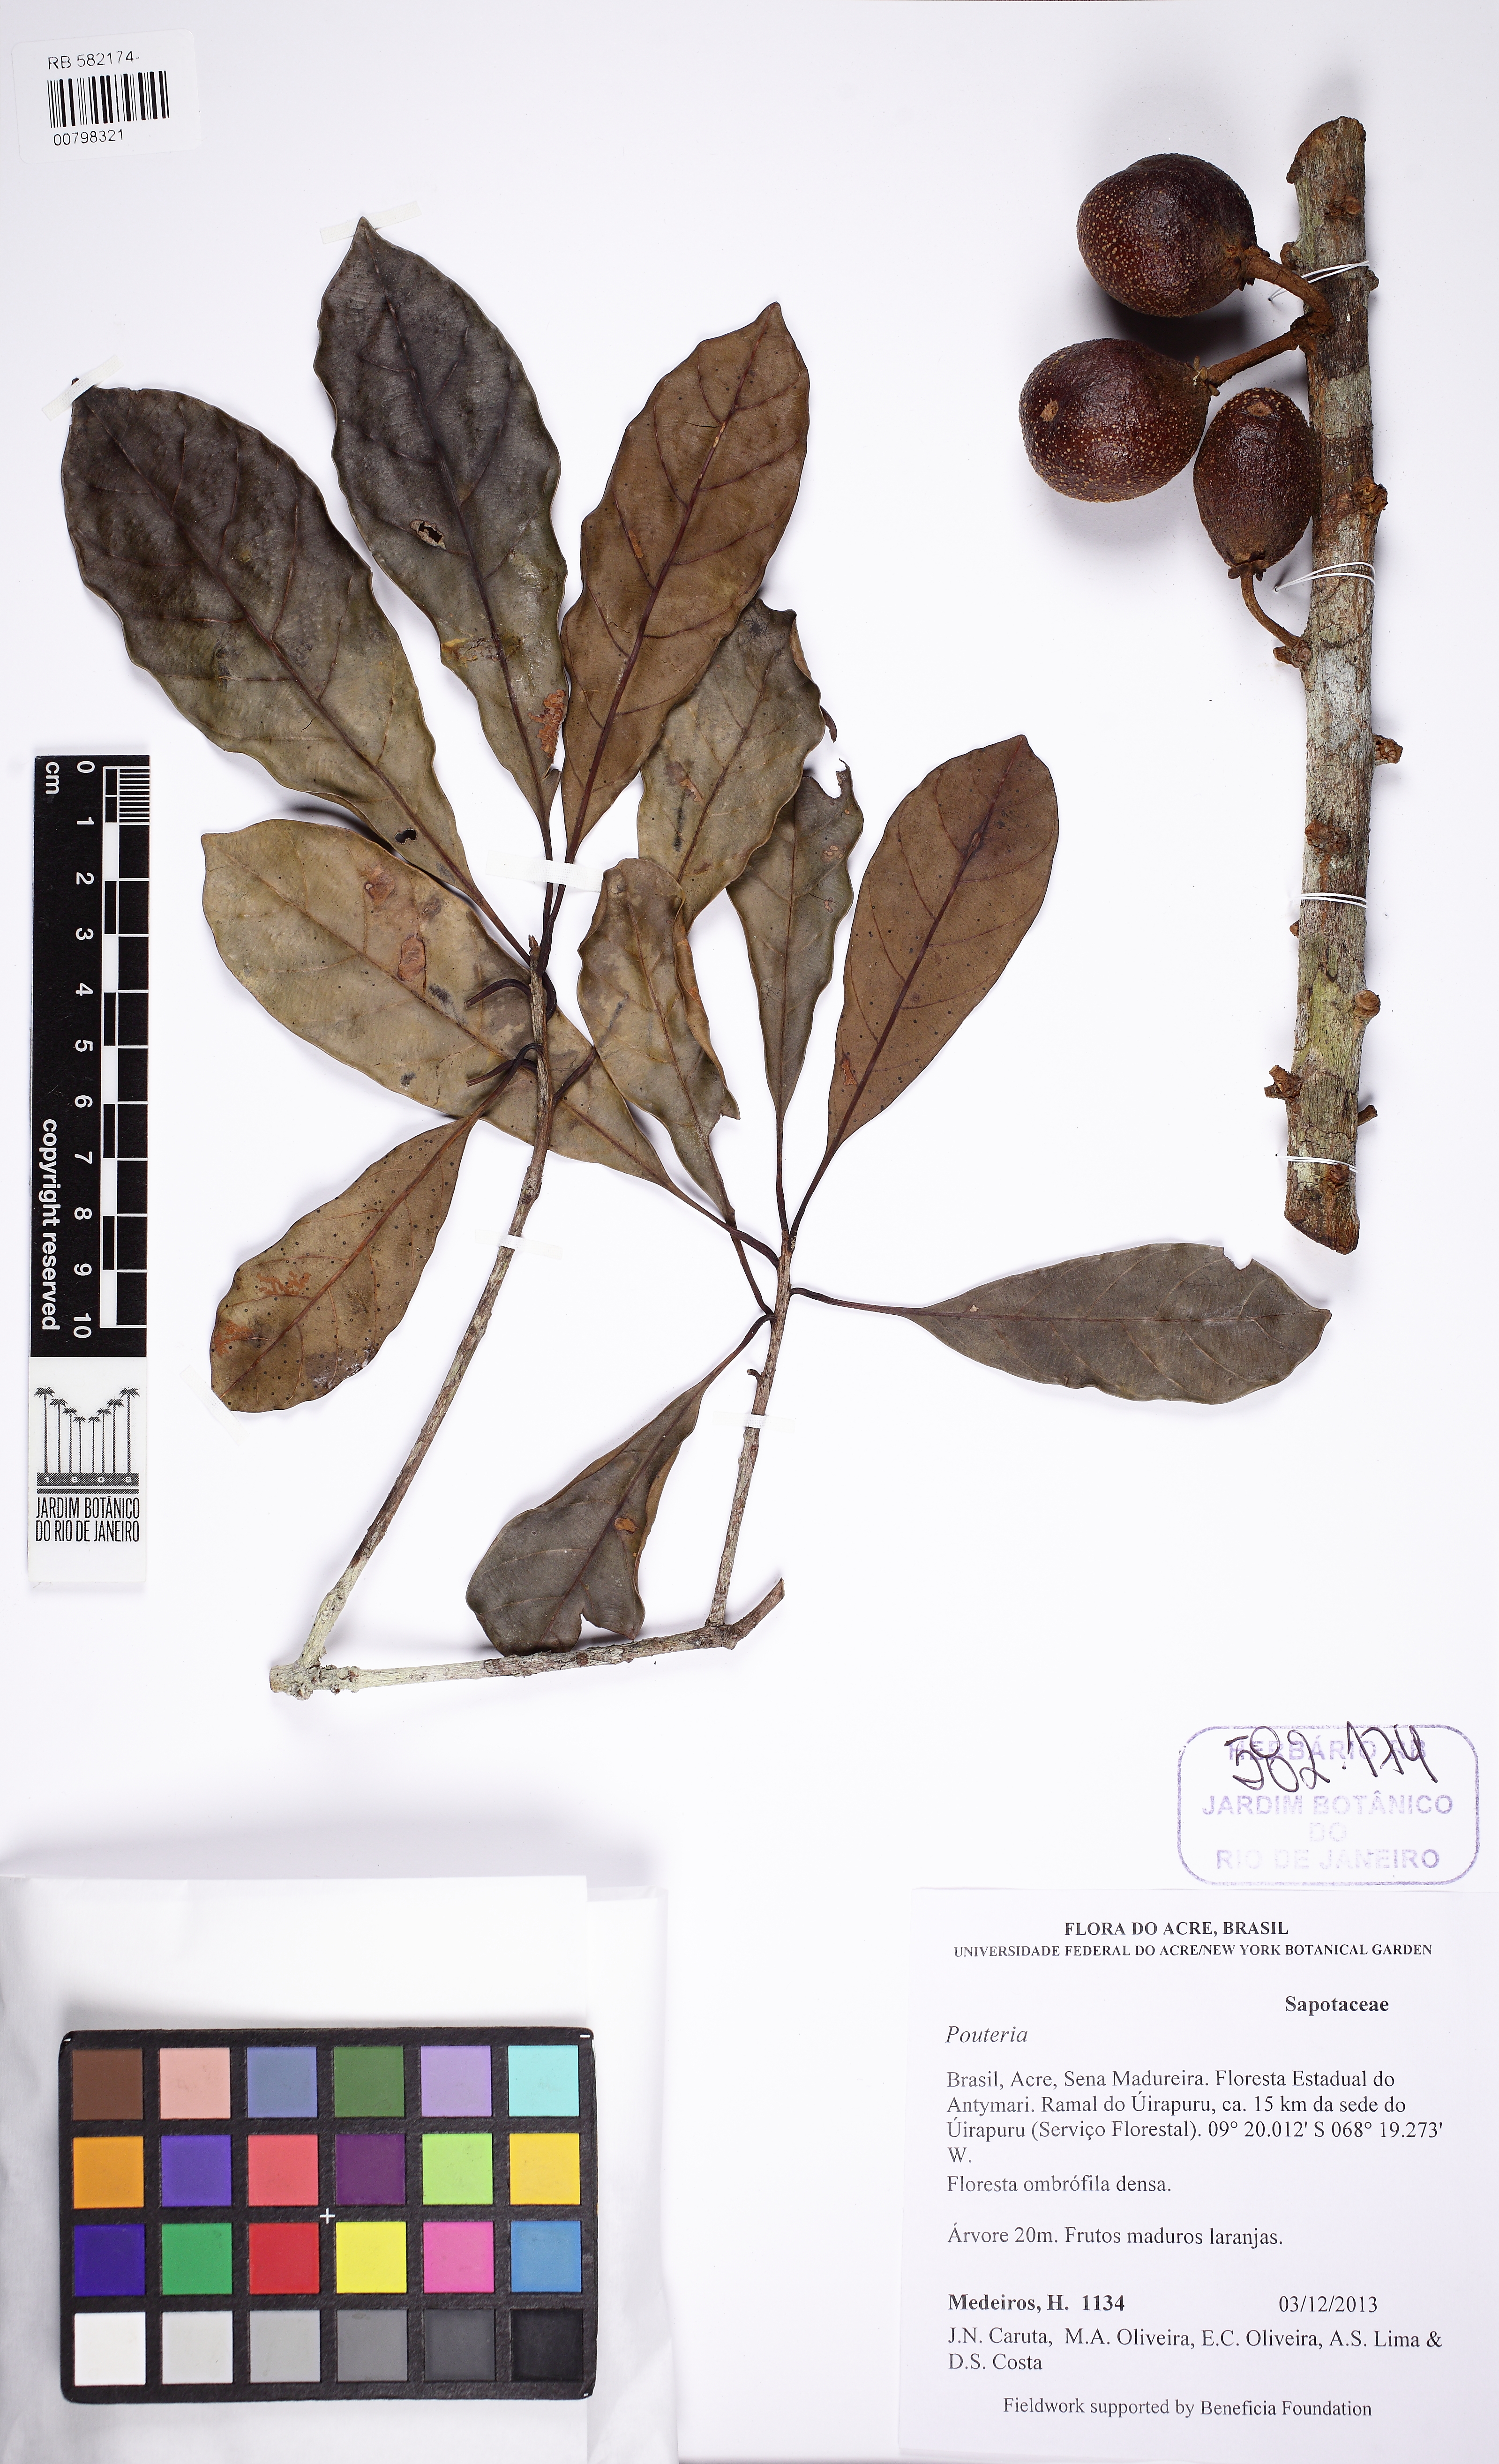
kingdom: Plantae
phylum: Tracheophyta
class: Magnoliopsida
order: Ericales
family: Sapotaceae
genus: Pouteria
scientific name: Pouteria
